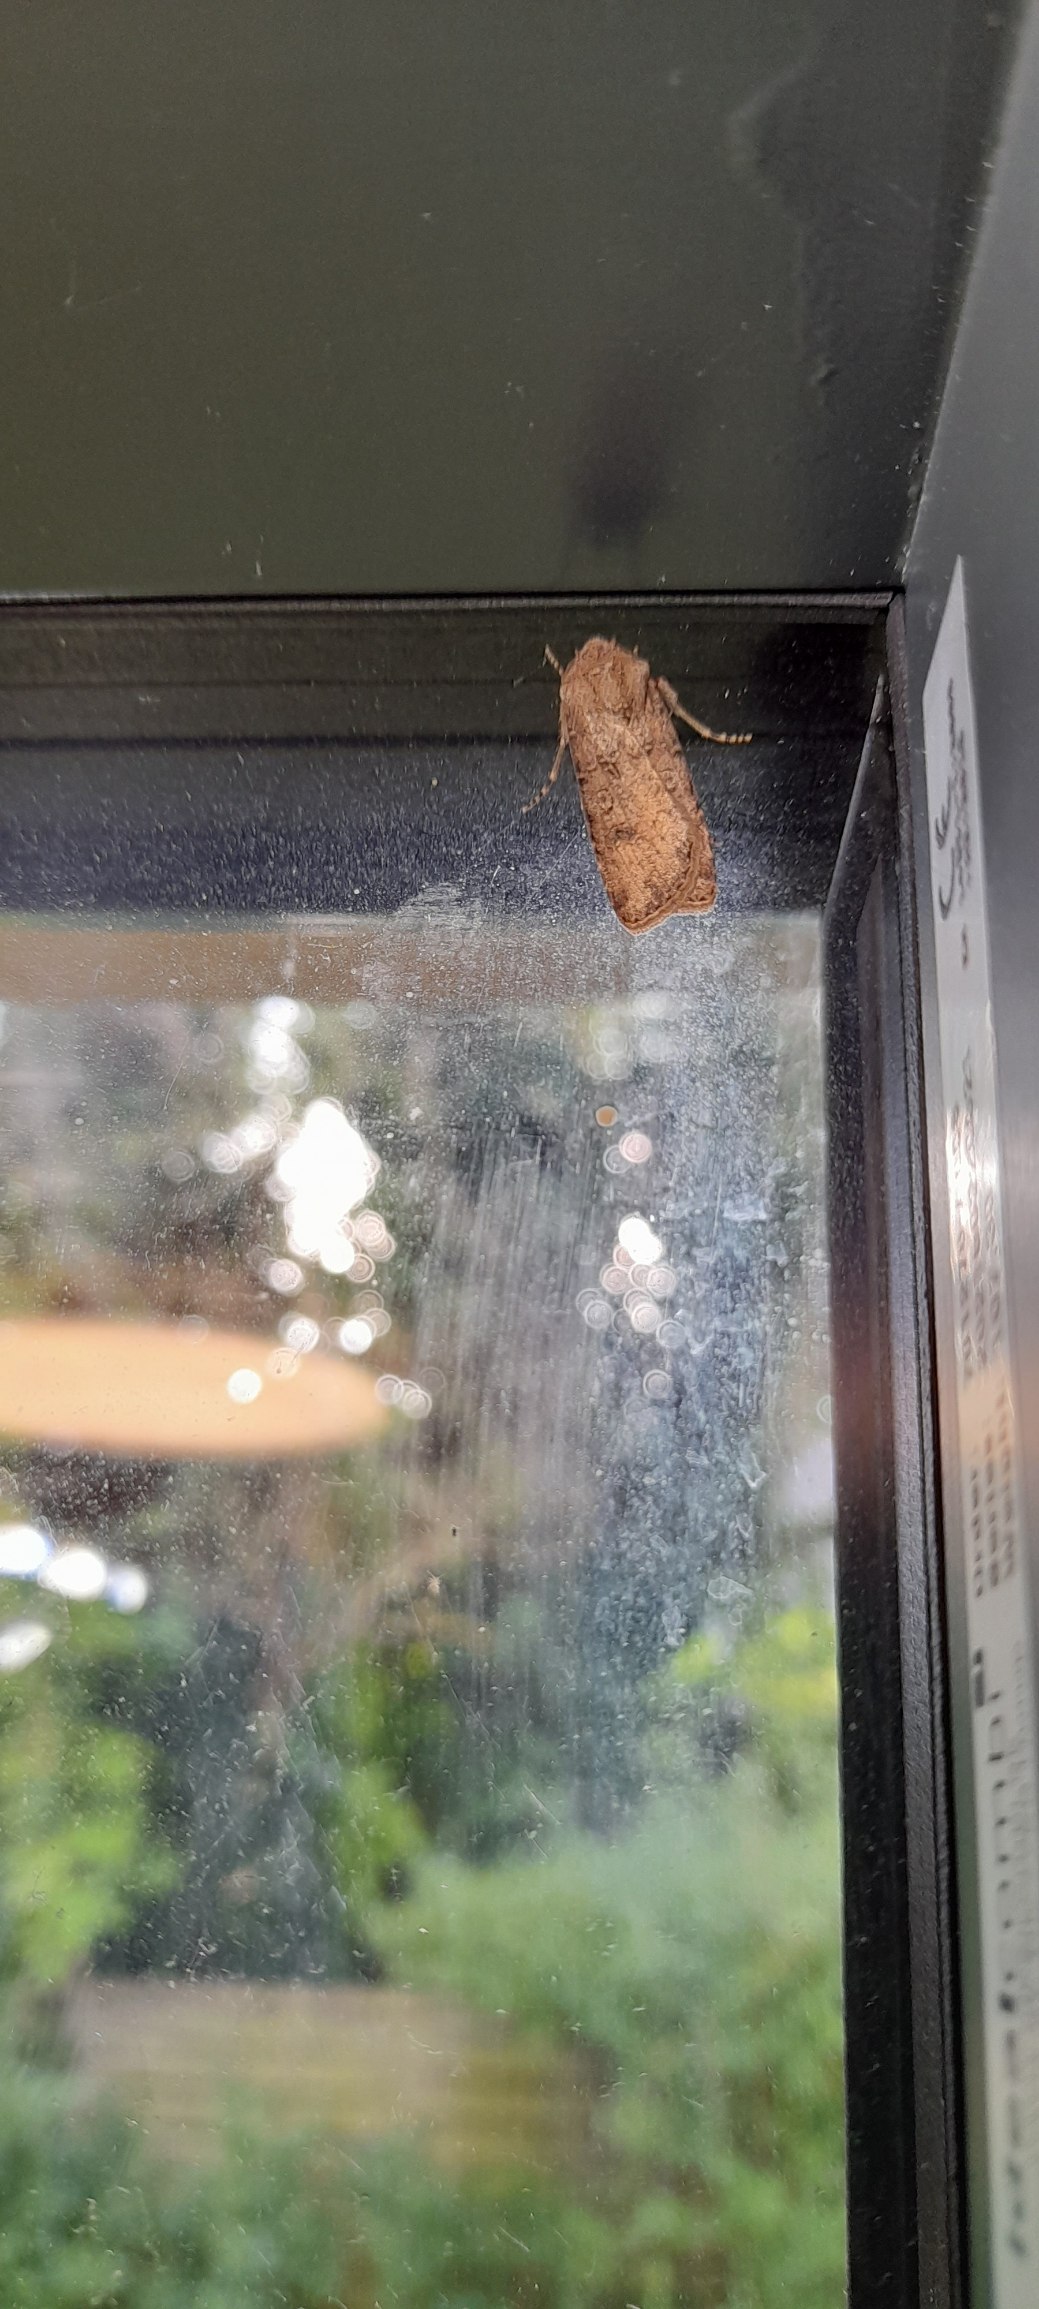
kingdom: Animalia
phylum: Arthropoda
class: Insecta
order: Lepidoptera
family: Noctuidae
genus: Agrotis
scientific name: Agrotis segetum
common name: Agerugle
